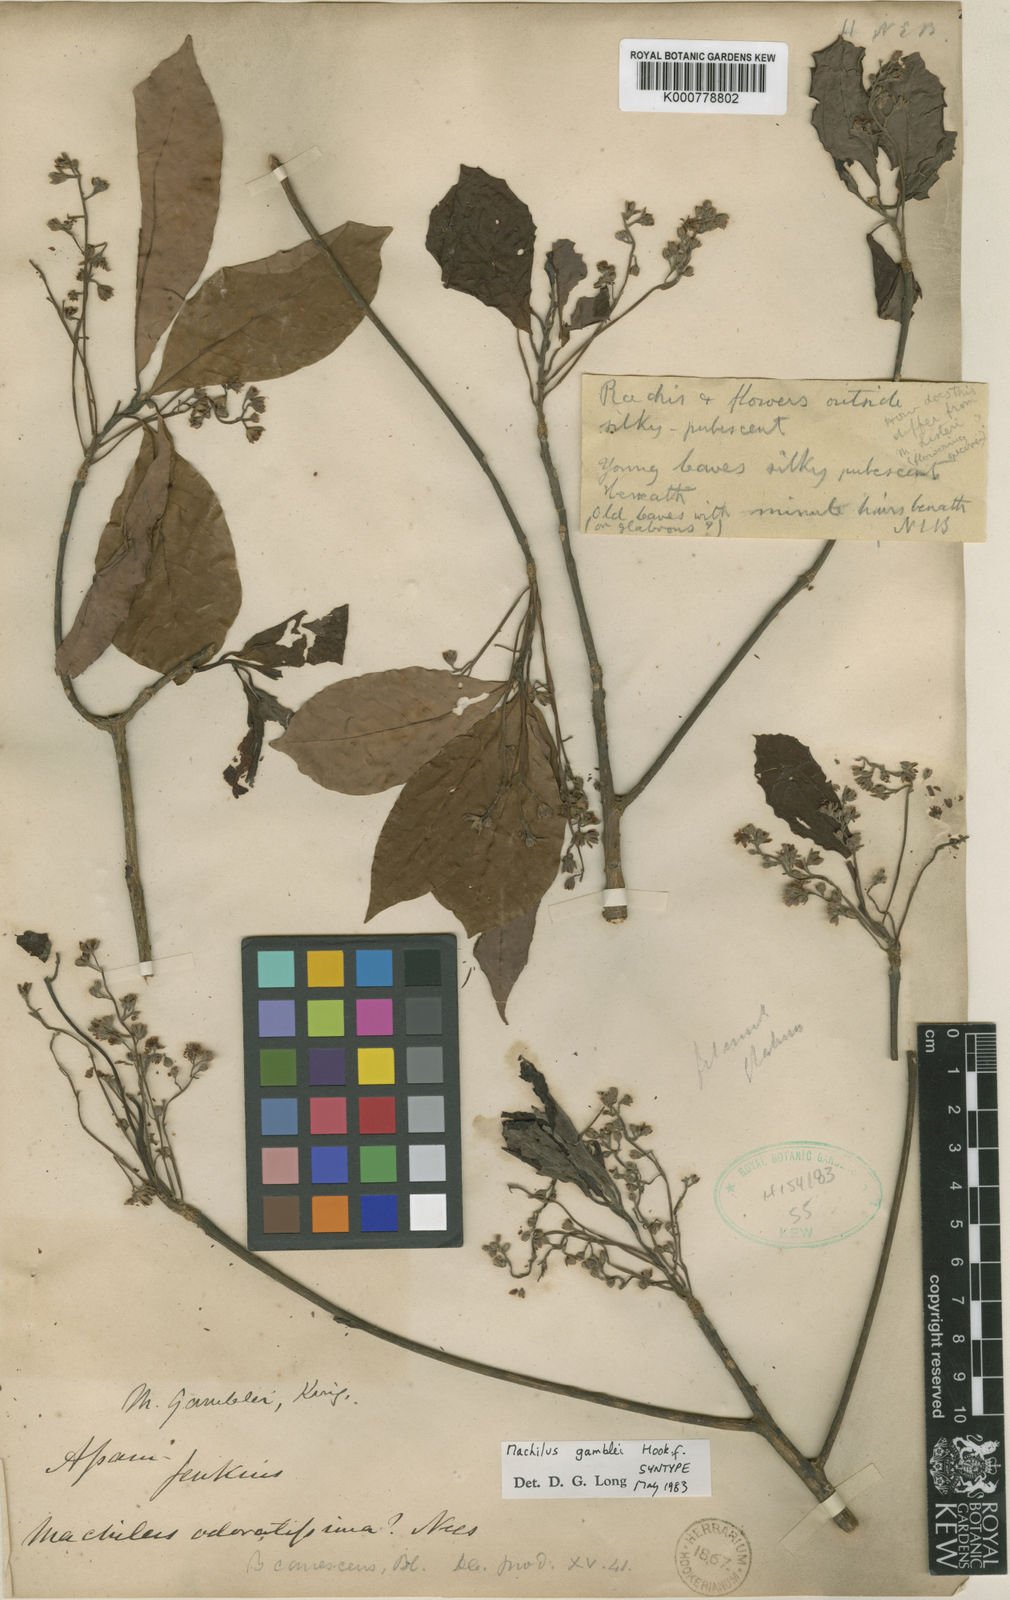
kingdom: Plantae
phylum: Tracheophyta
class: Magnoliopsida
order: Laurales
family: Lauraceae
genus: Machilus
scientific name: Machilus gamblei
